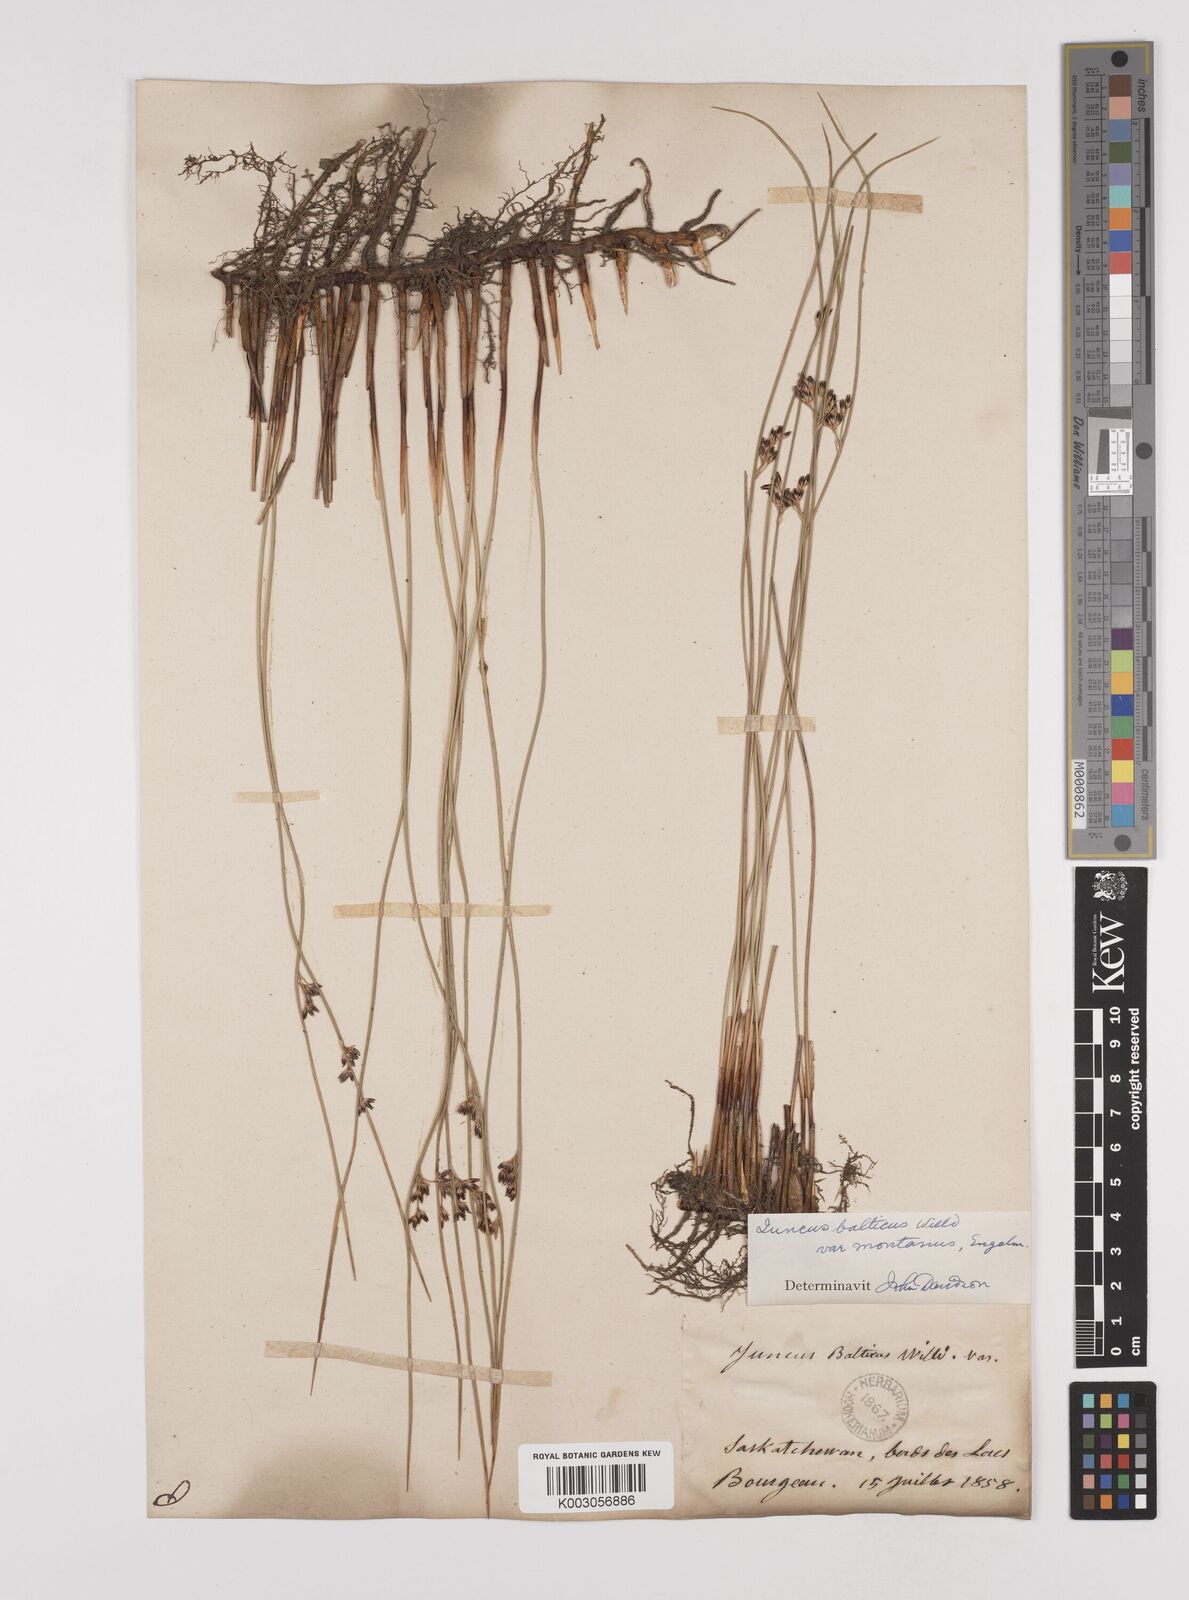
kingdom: Plantae
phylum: Tracheophyta
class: Liliopsida
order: Poales
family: Juncaceae
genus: Juncus
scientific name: Juncus
